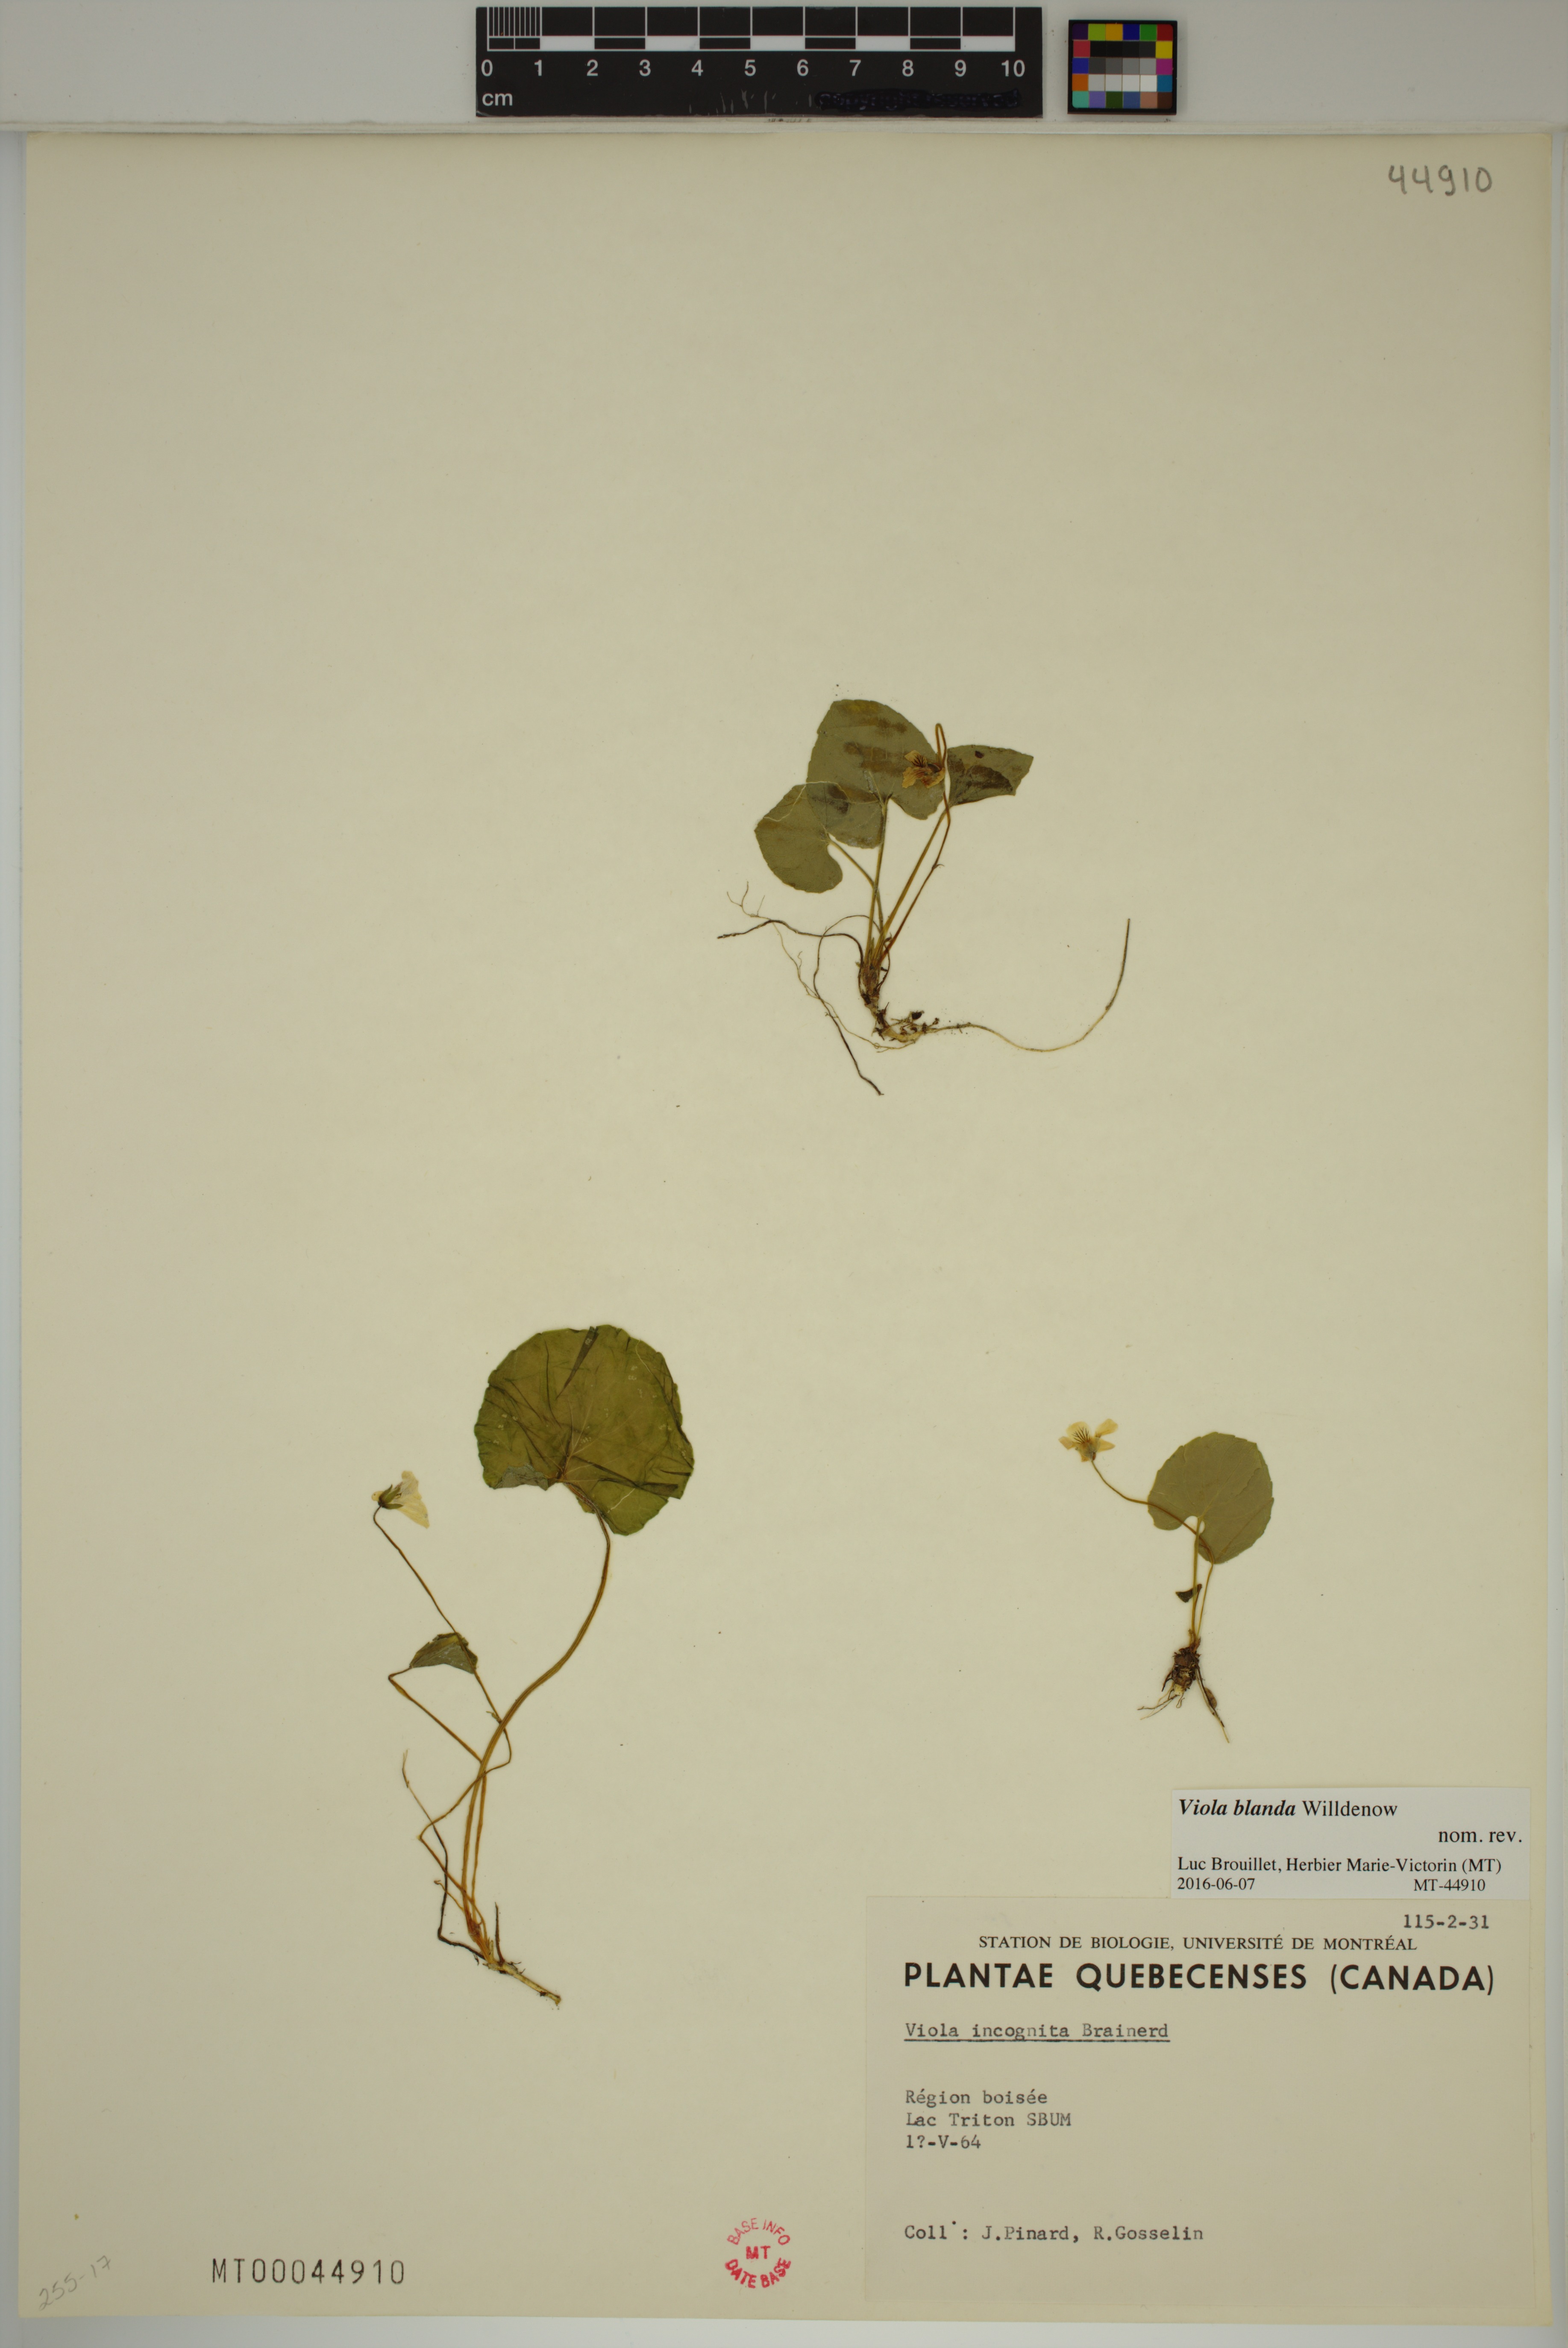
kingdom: Plantae
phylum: Tracheophyta
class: Magnoliopsida
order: Malpighiales
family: Violaceae
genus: Viola
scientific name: Viola blanda
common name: Sweet white violet
